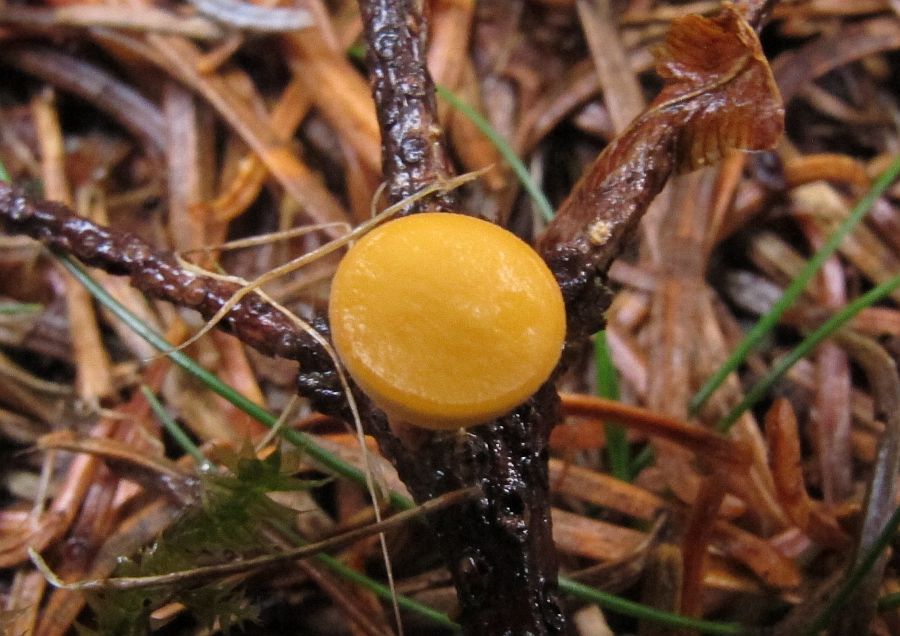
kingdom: Fungi
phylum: Ascomycota
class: Pezizomycetes
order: Pezizales
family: Sarcoscyphaceae
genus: Pithya
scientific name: Pithya vulgaris
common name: stor dukatbæger
